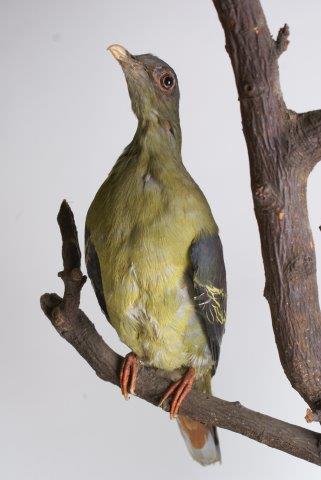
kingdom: Animalia
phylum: Chordata
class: Aves
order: Columbiformes
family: Columbidae
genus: Treron
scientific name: Treron curvirostra
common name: Thick-billed green pigeon
